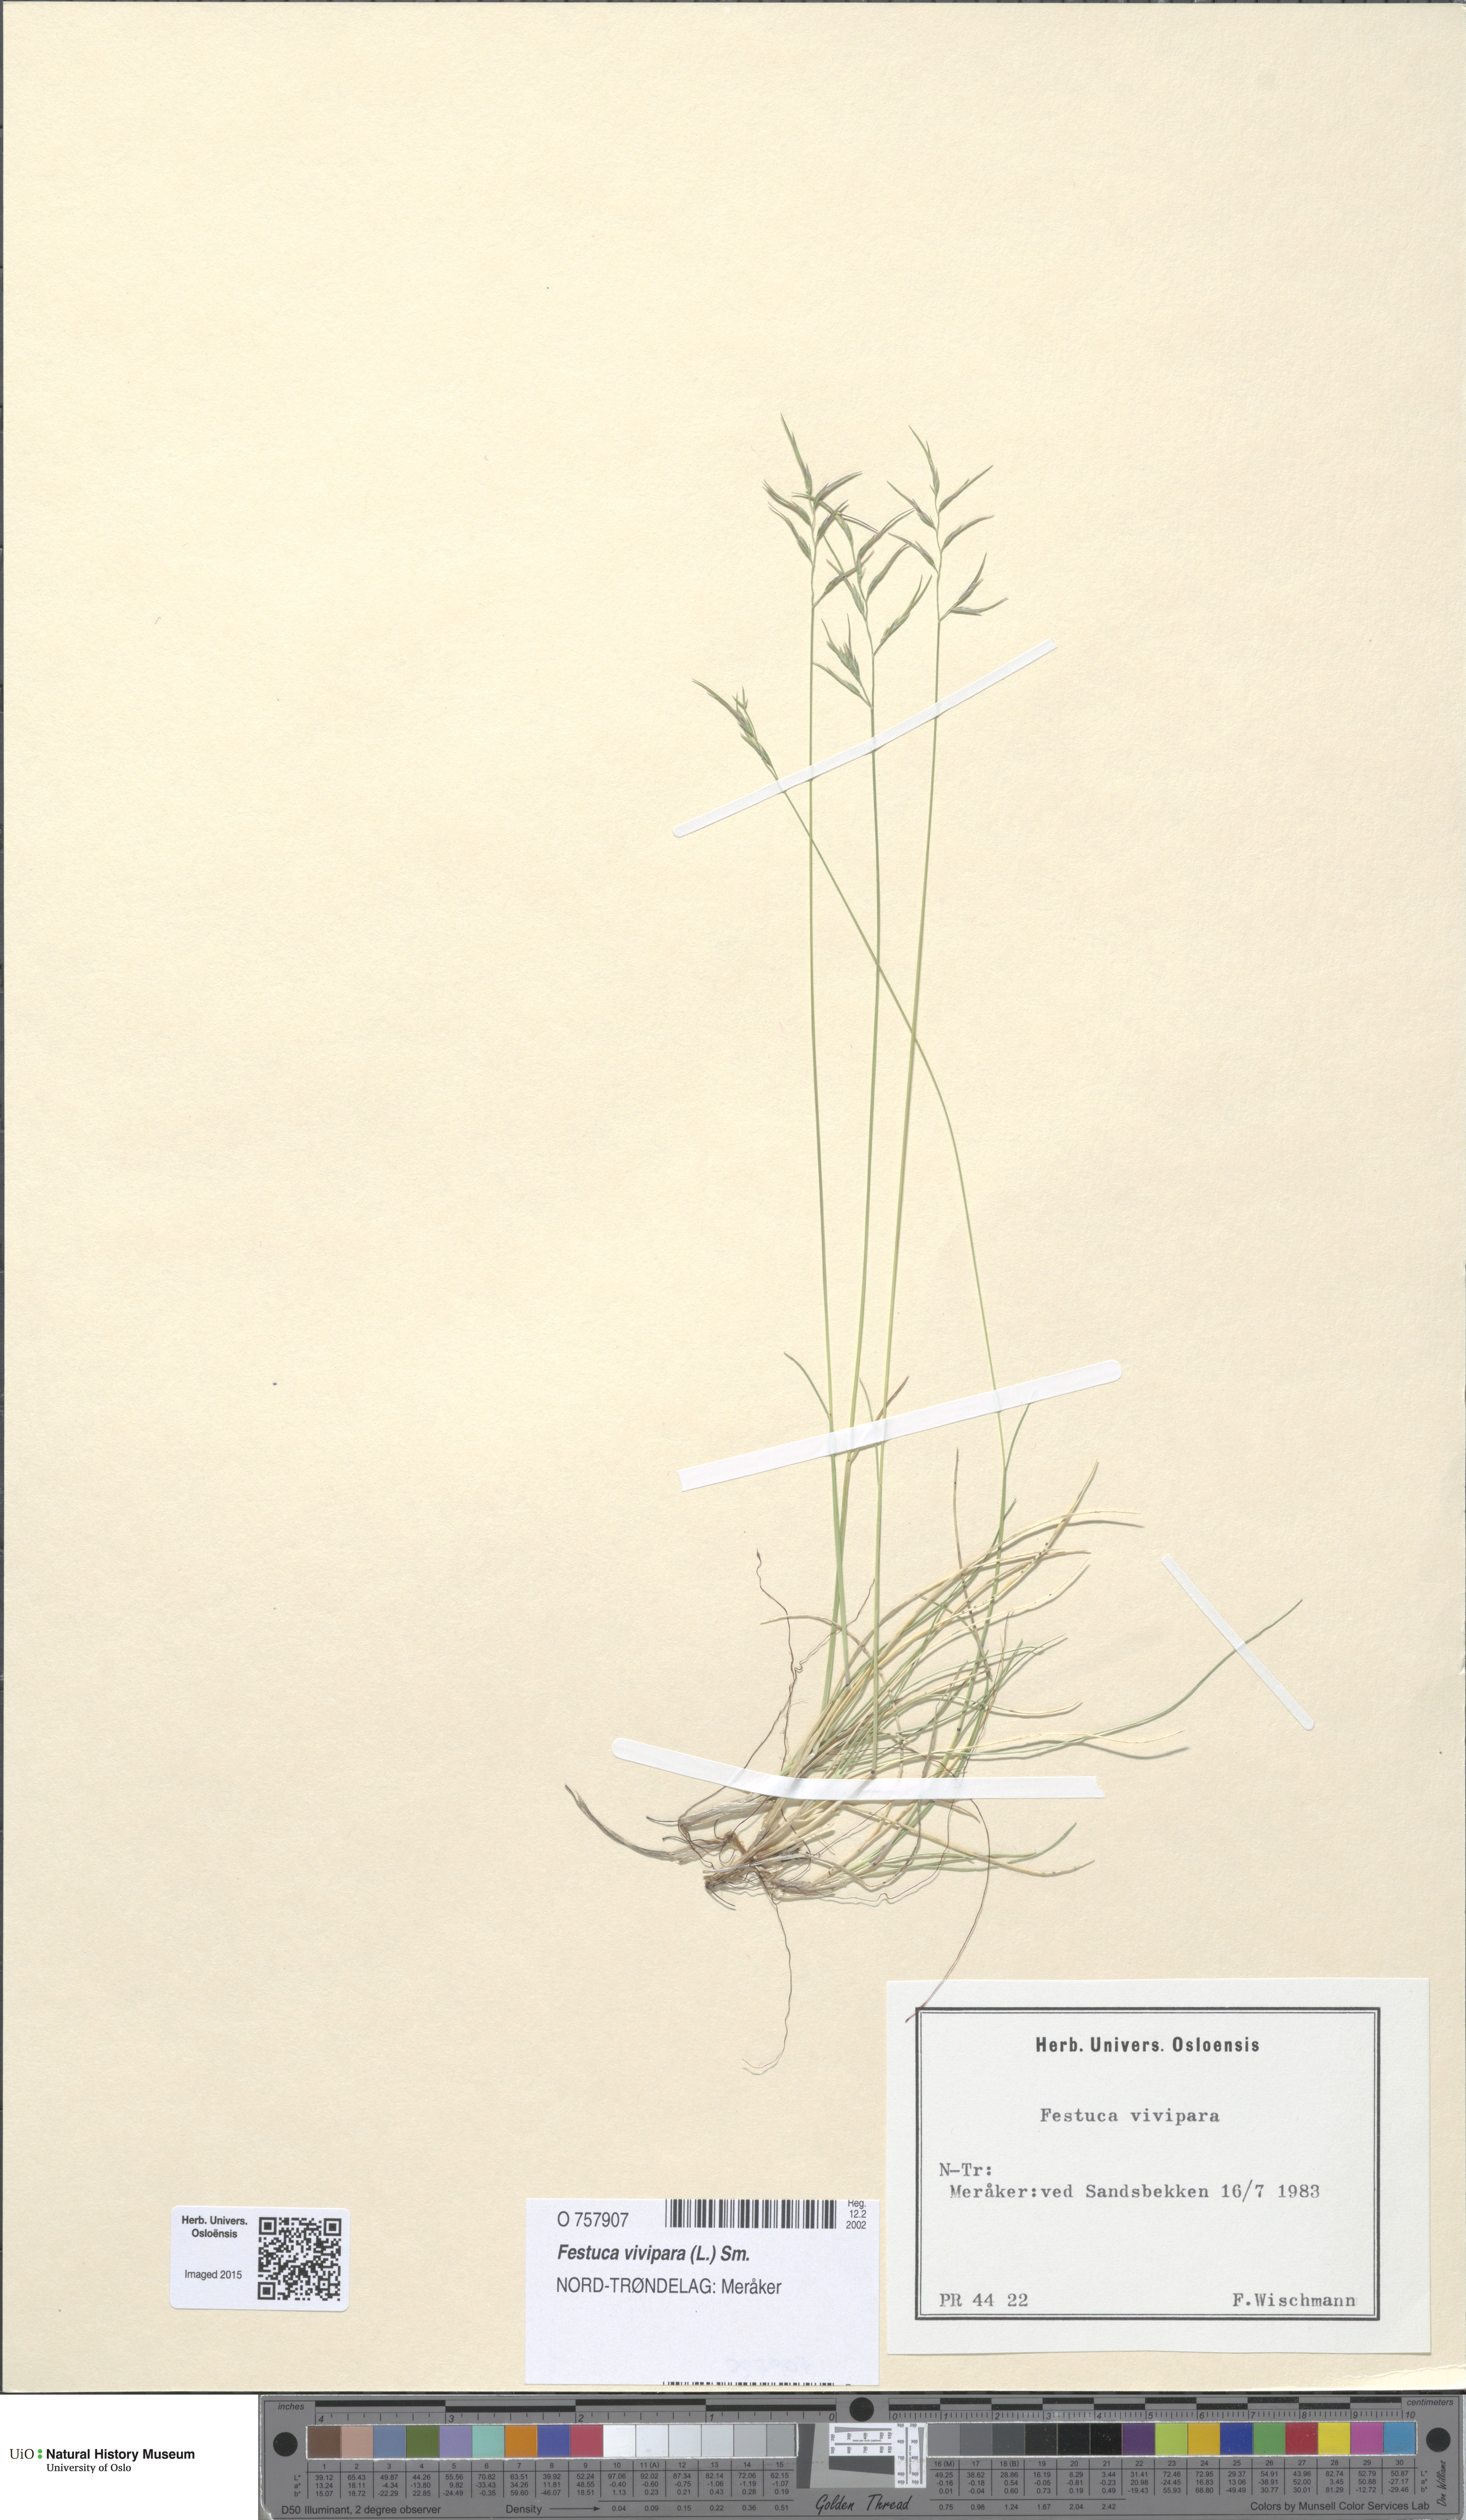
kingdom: Plantae
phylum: Tracheophyta
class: Liliopsida
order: Poales
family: Poaceae
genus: Festuca
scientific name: Festuca vivipara
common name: Viviparous sheep's-fescue
